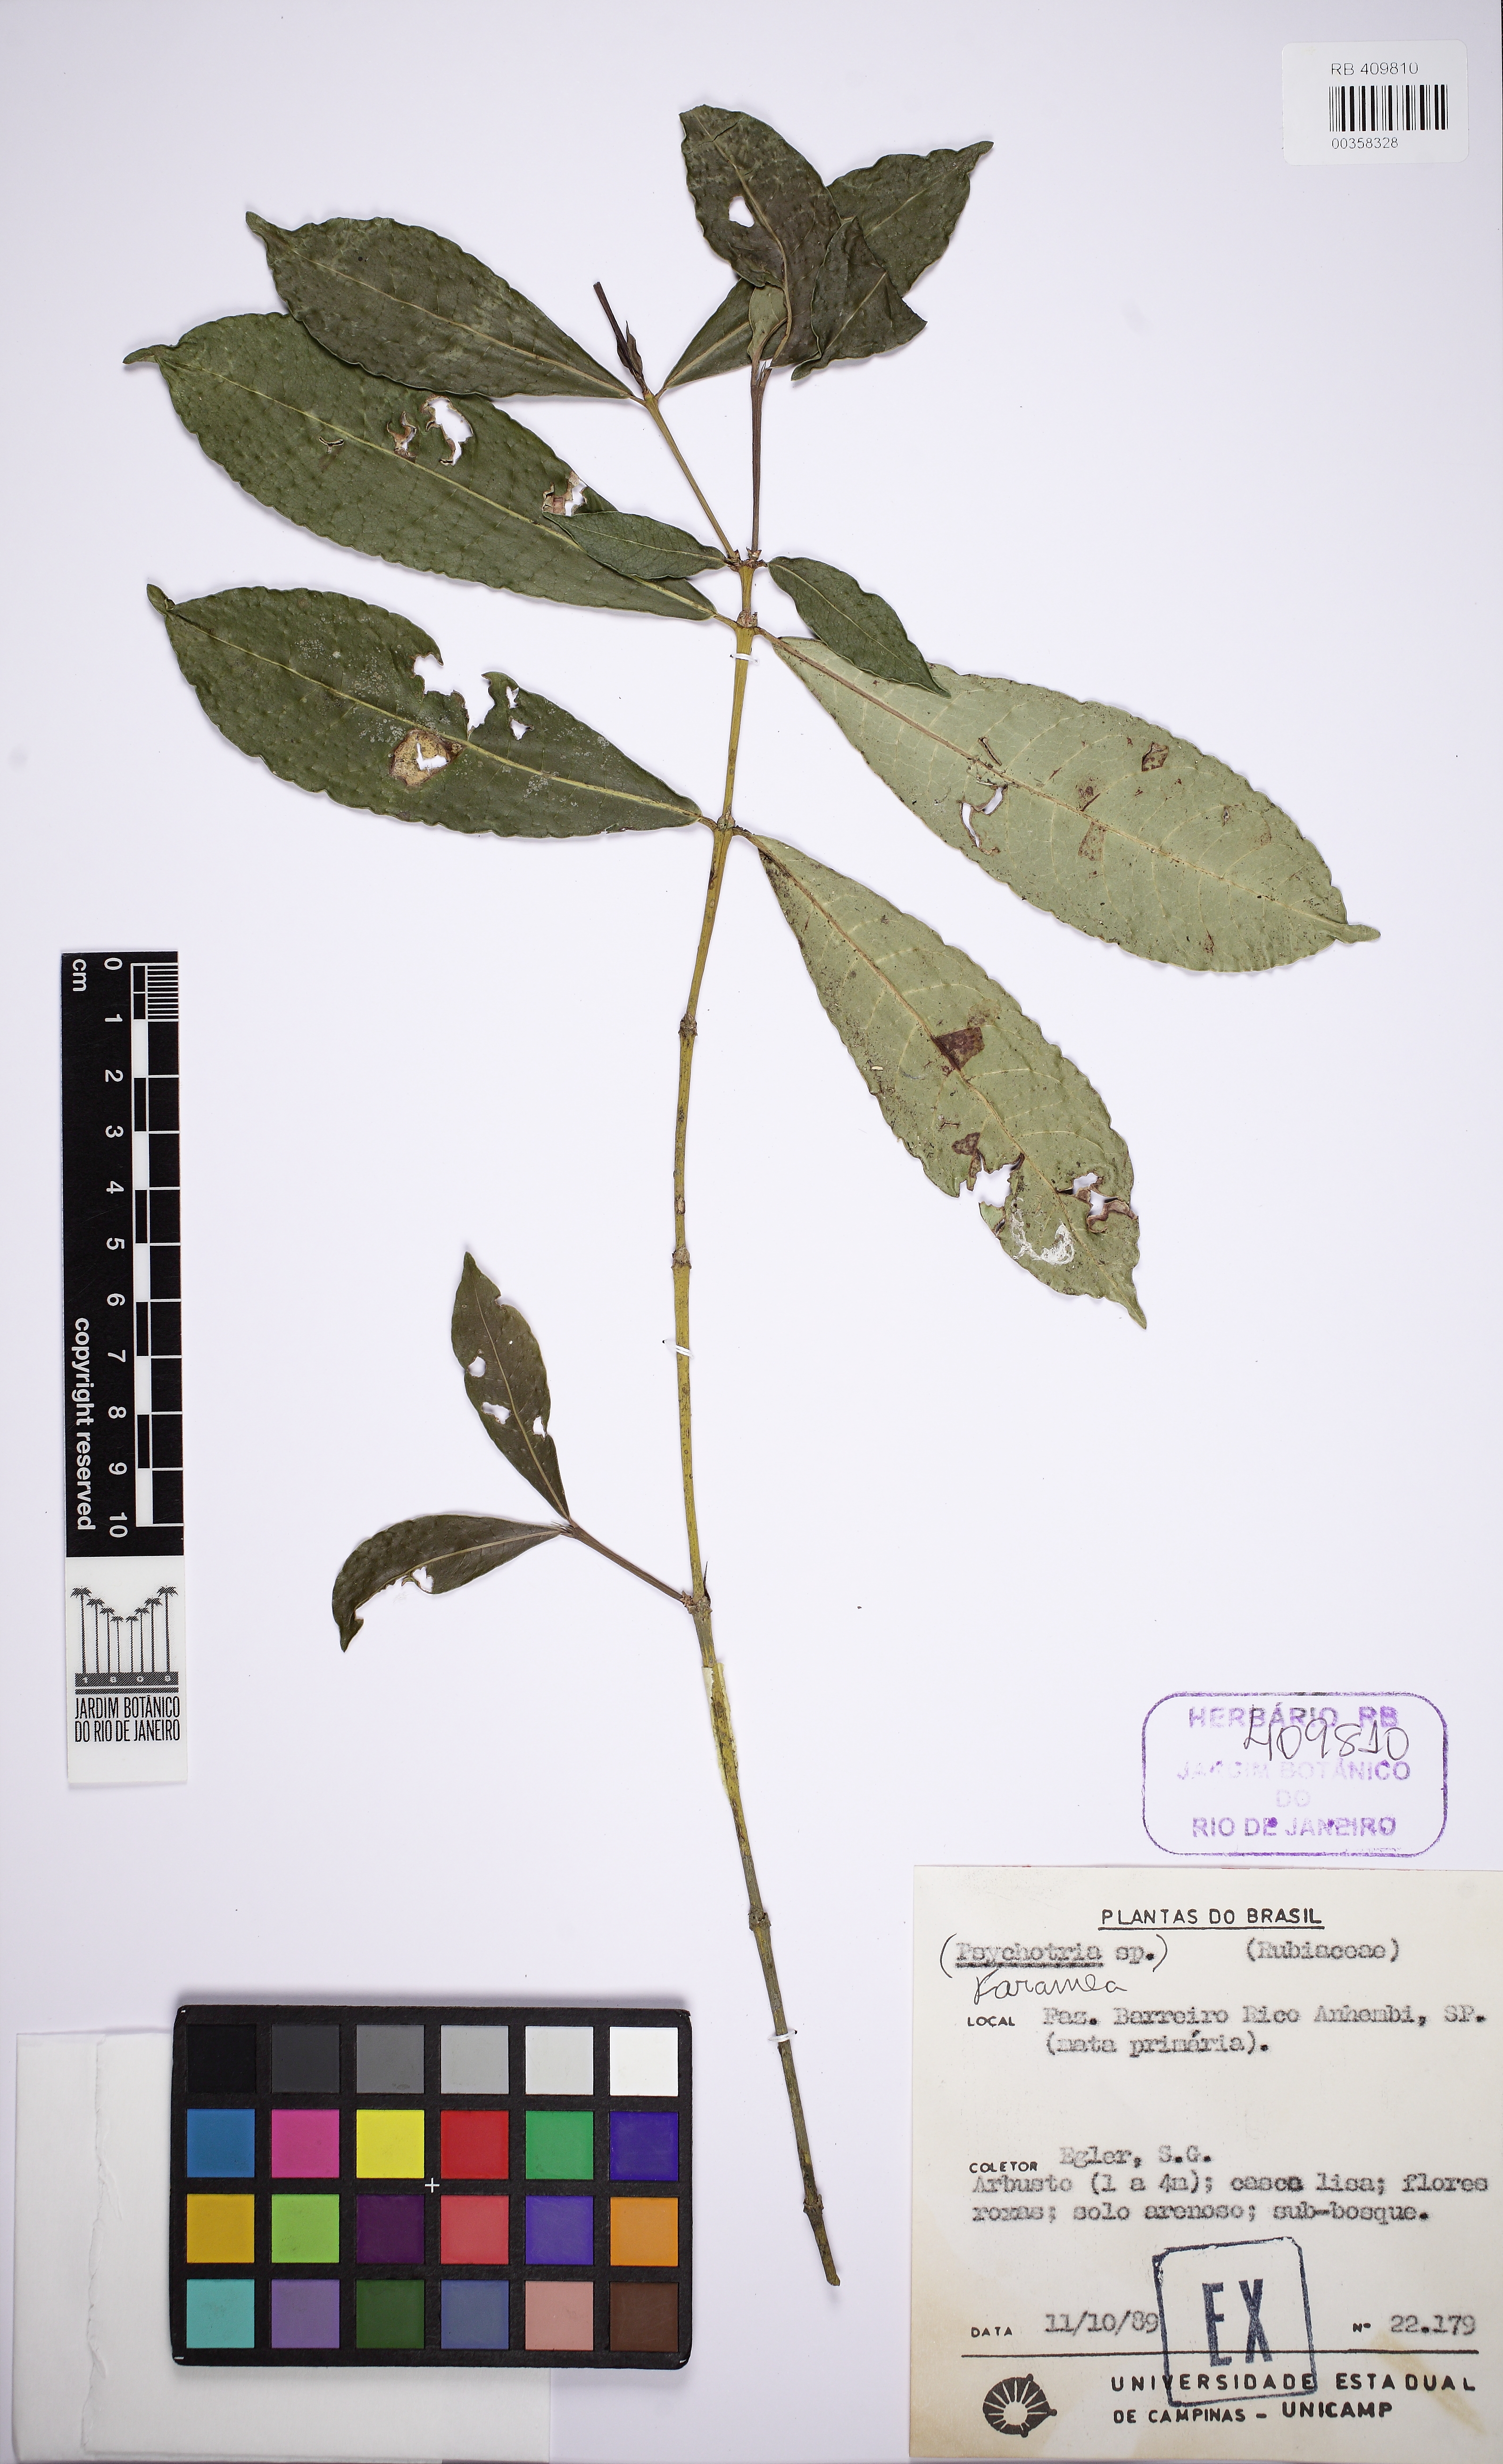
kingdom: Plantae
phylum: Tracheophyta
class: Magnoliopsida
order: Gentianales
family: Rubiaceae
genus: Faramea
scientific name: Faramea stipulacea
